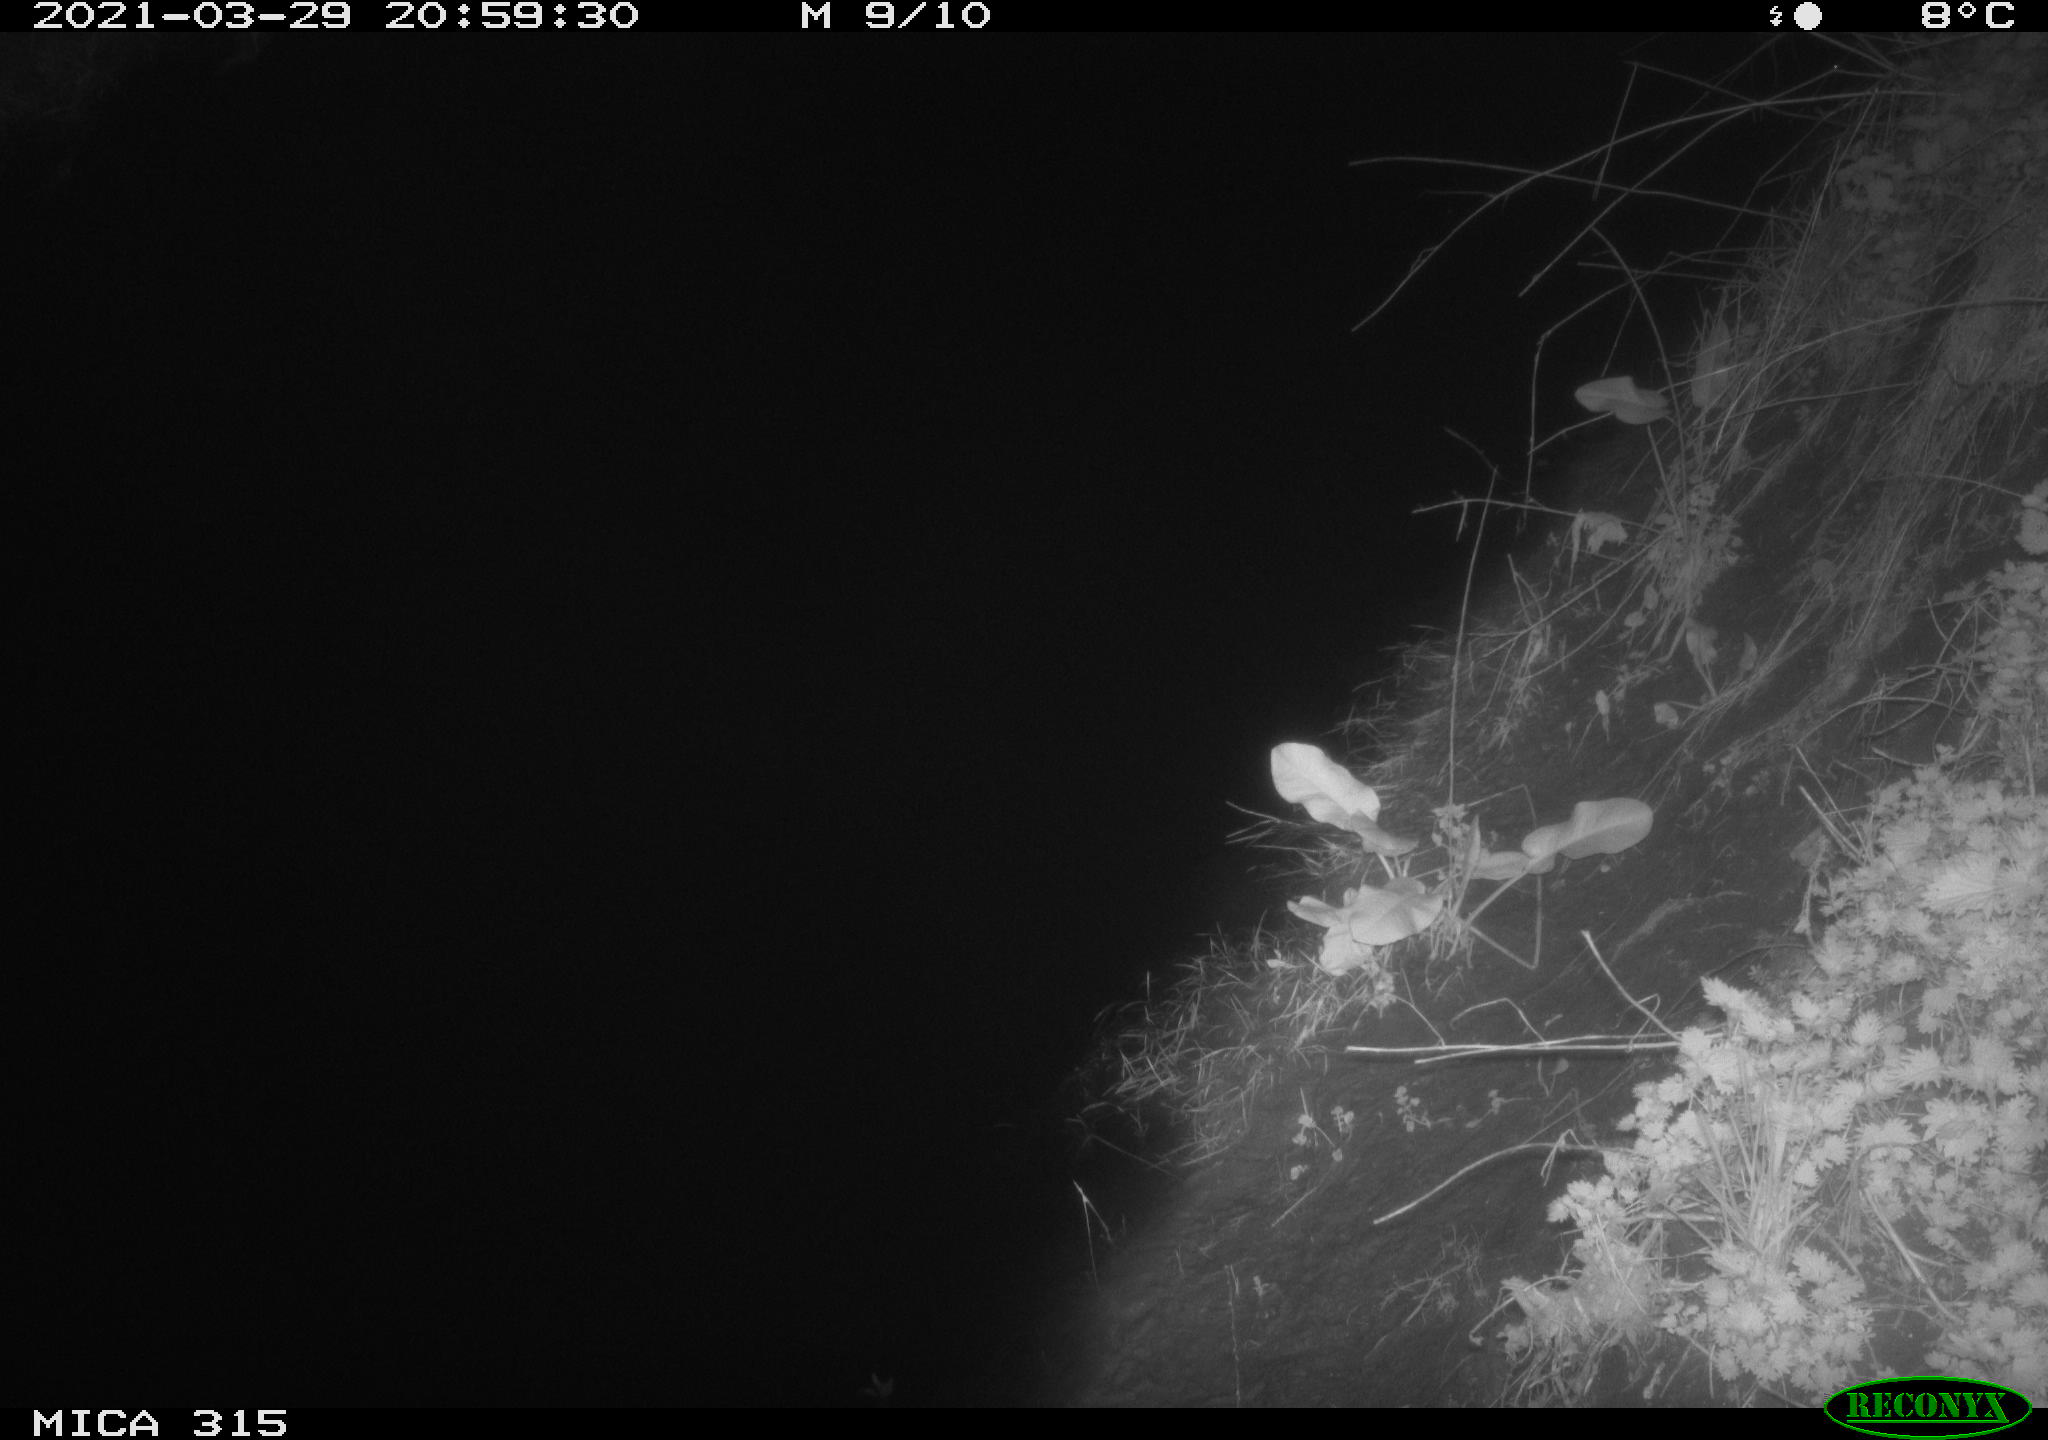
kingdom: Animalia
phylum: Chordata
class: Aves
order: Anseriformes
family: Anatidae
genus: Anas
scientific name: Anas platyrhynchos
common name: Mallard
